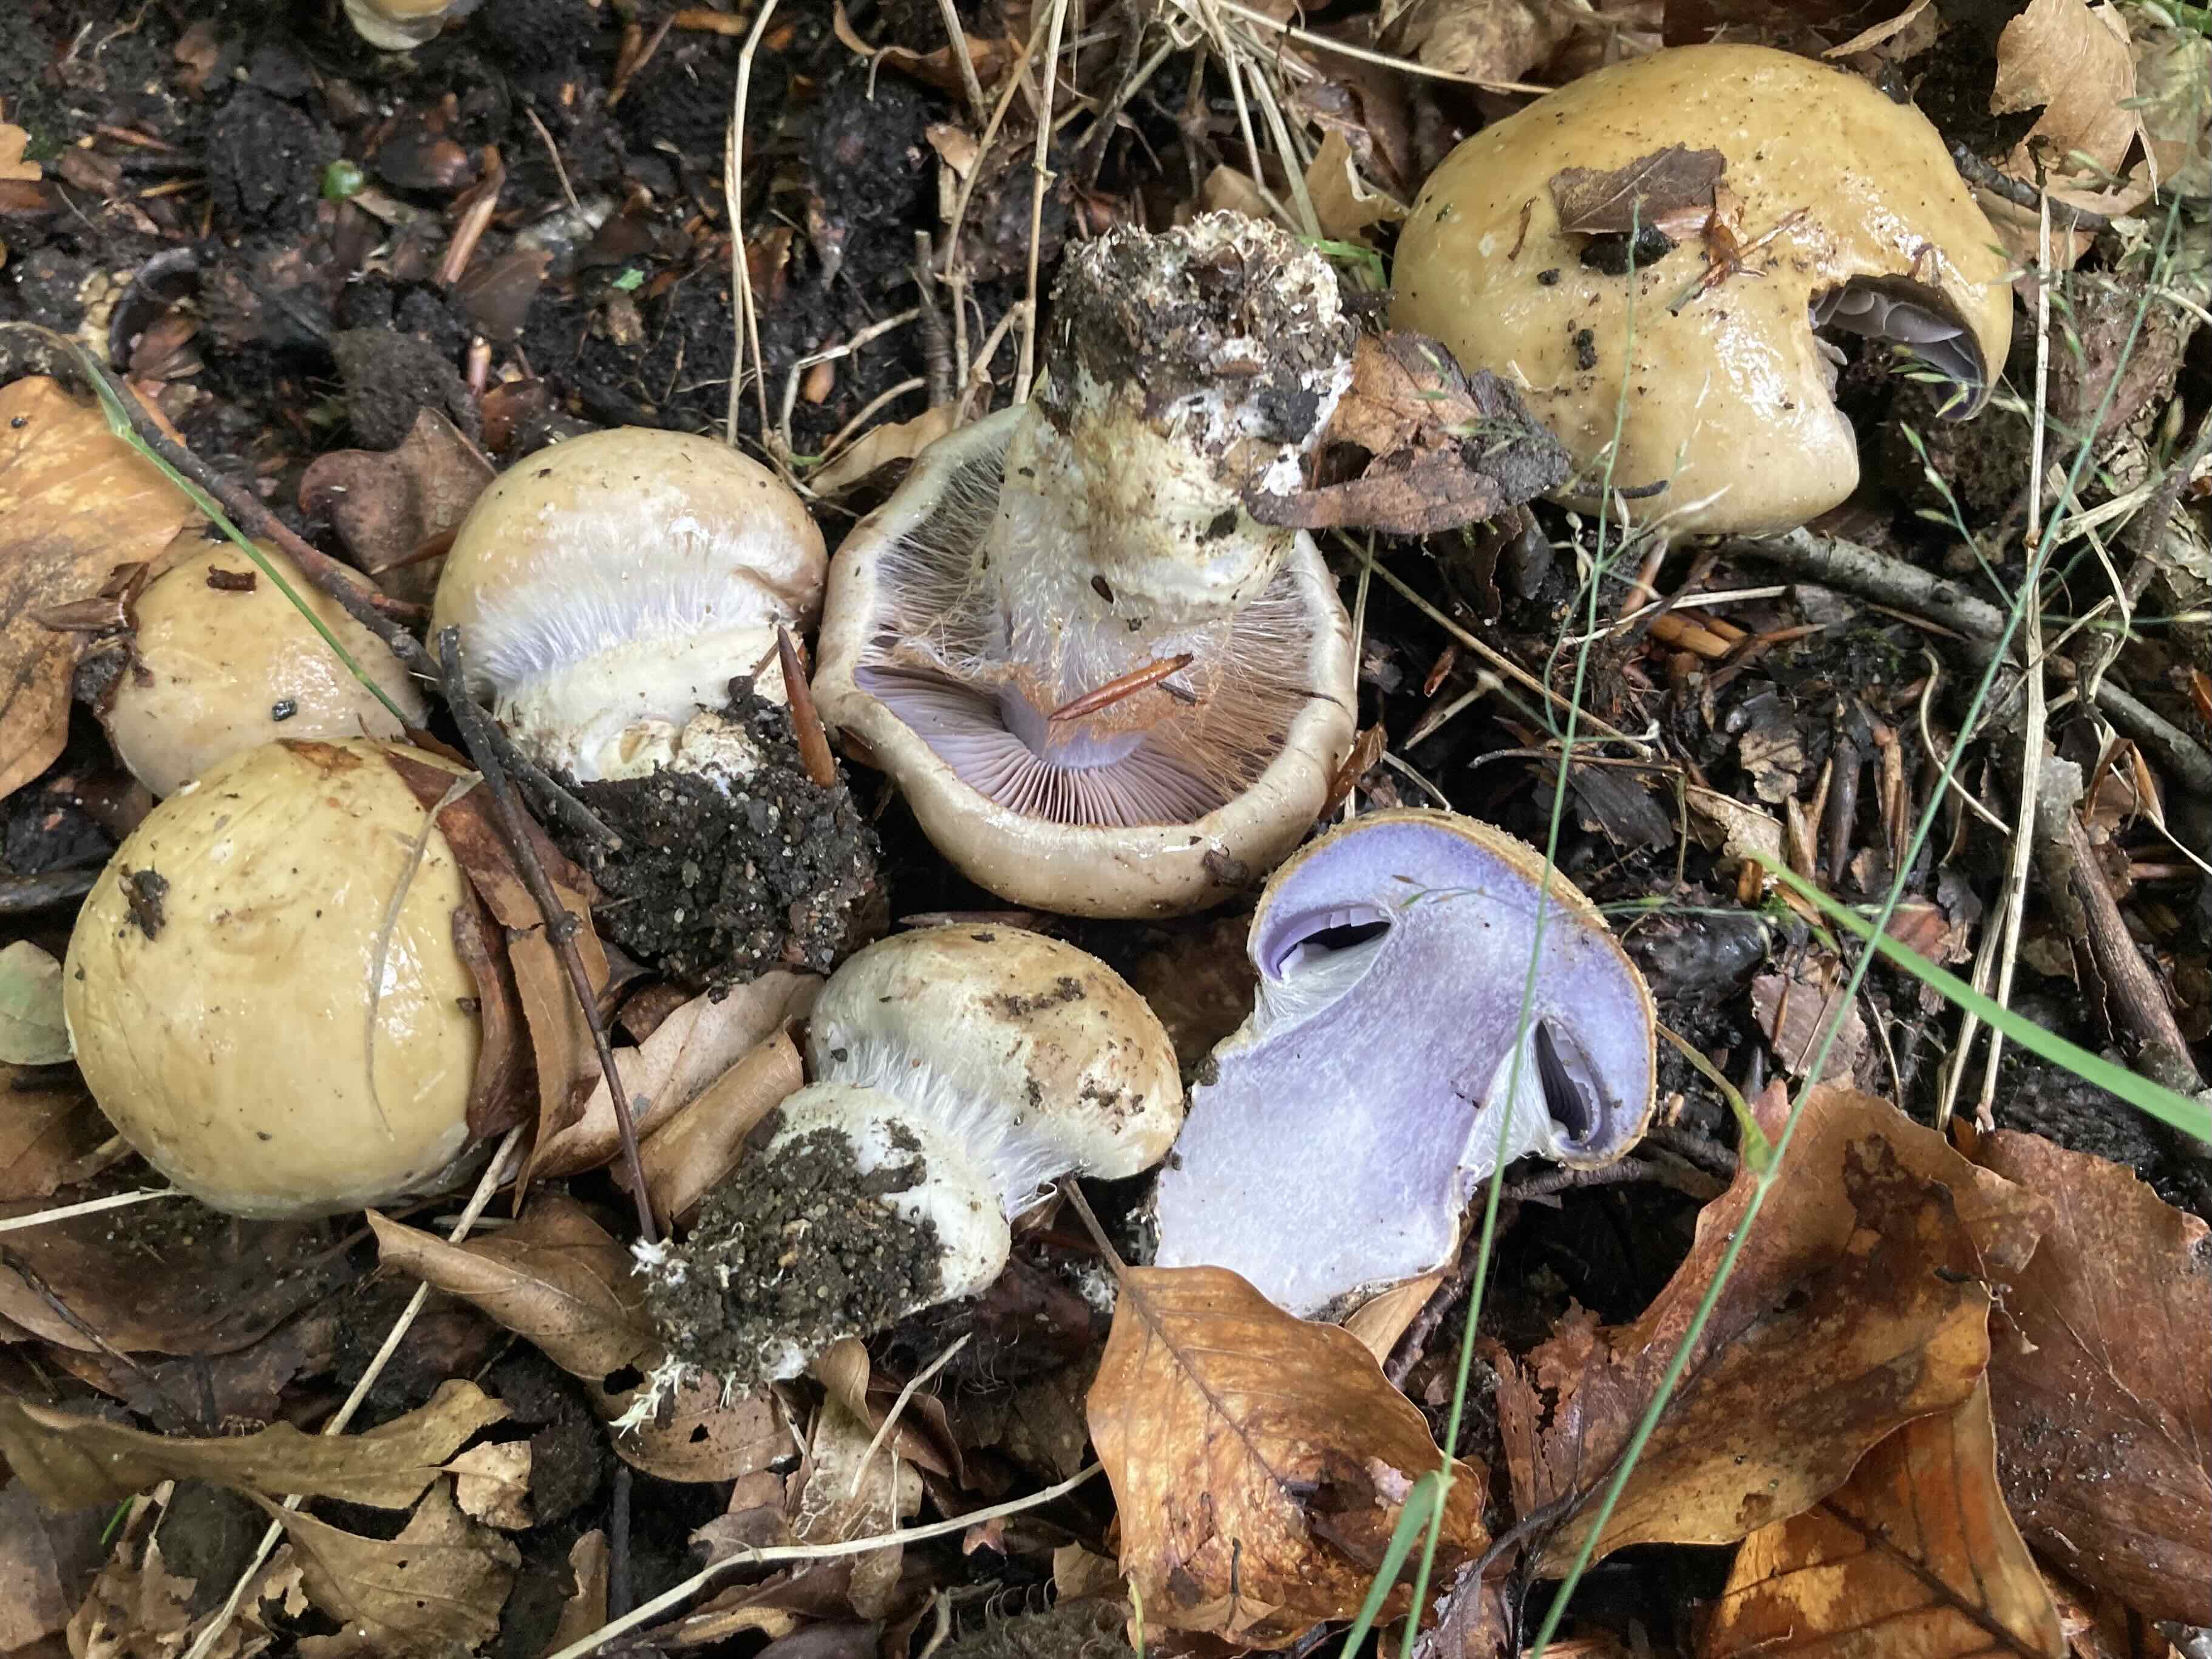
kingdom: Fungi
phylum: Basidiomycota
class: Agaricomycetes
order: Agaricales
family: Cortinariaceae
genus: Cortinarius
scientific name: Cortinarius anserinus
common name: bøge-slørhat
